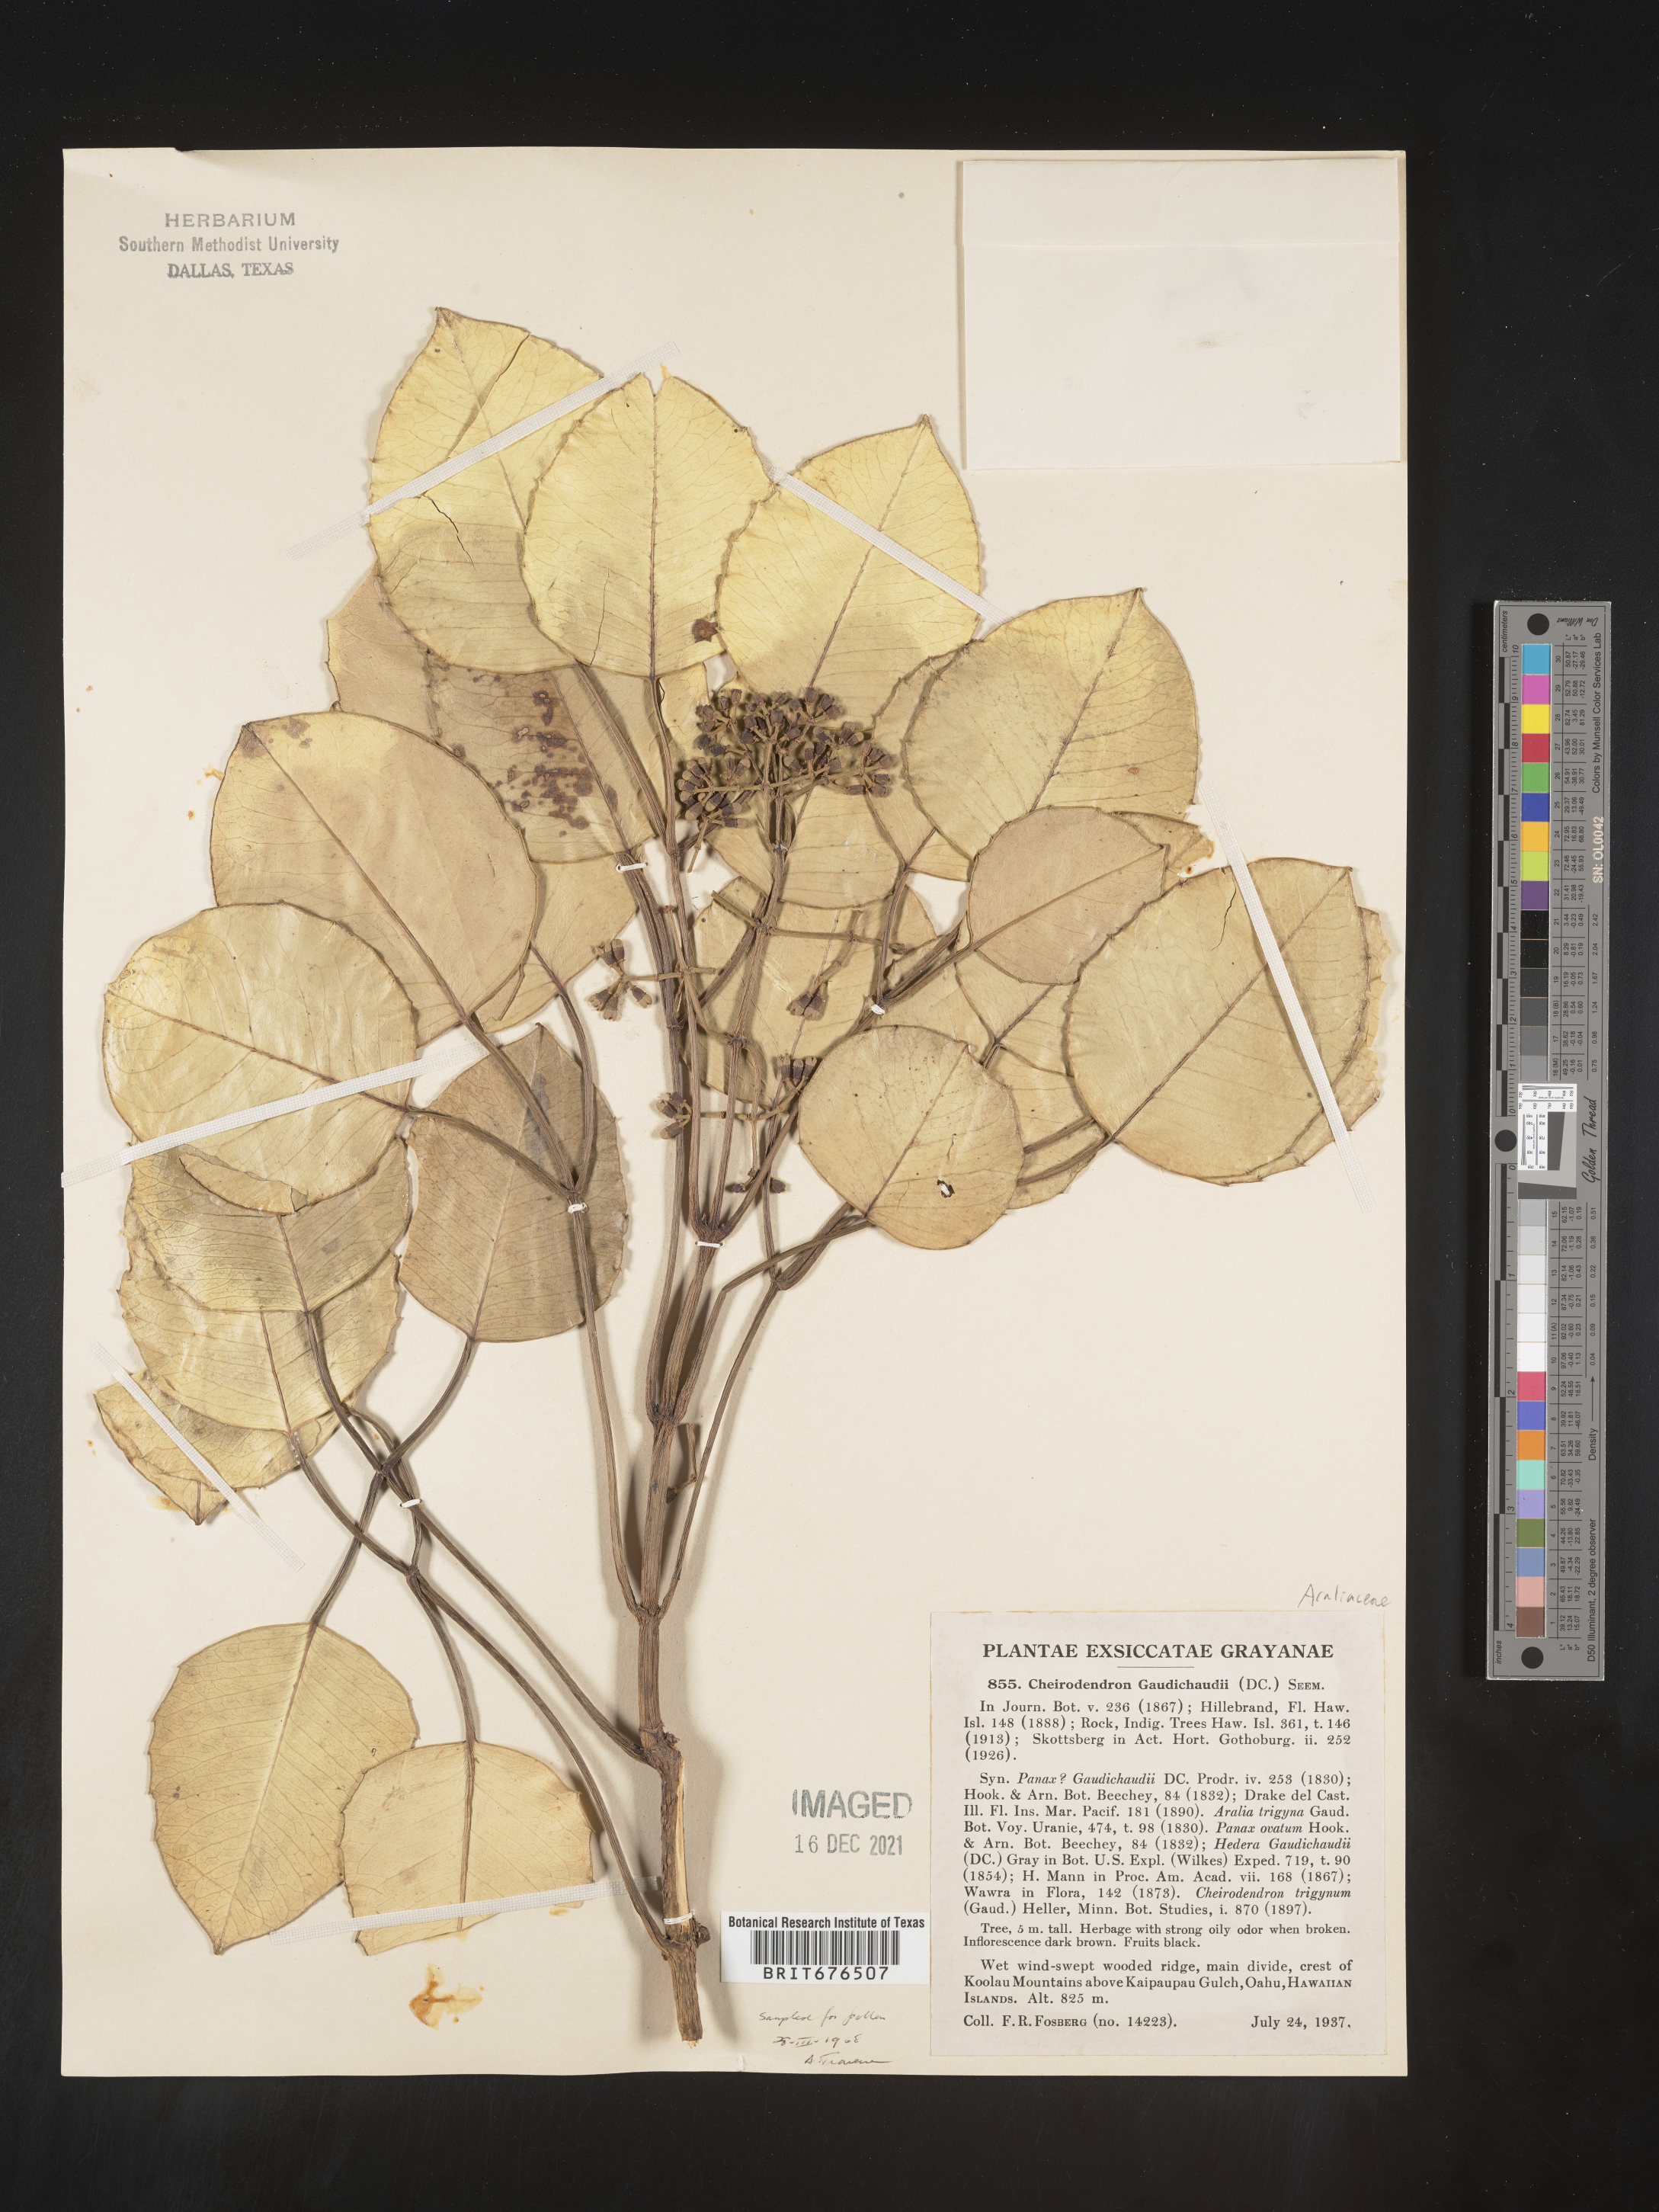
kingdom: Plantae
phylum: Tracheophyta
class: Magnoliopsida
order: Apiales
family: Araliaceae
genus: Cheirodendron
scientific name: Cheirodendron trigynum
